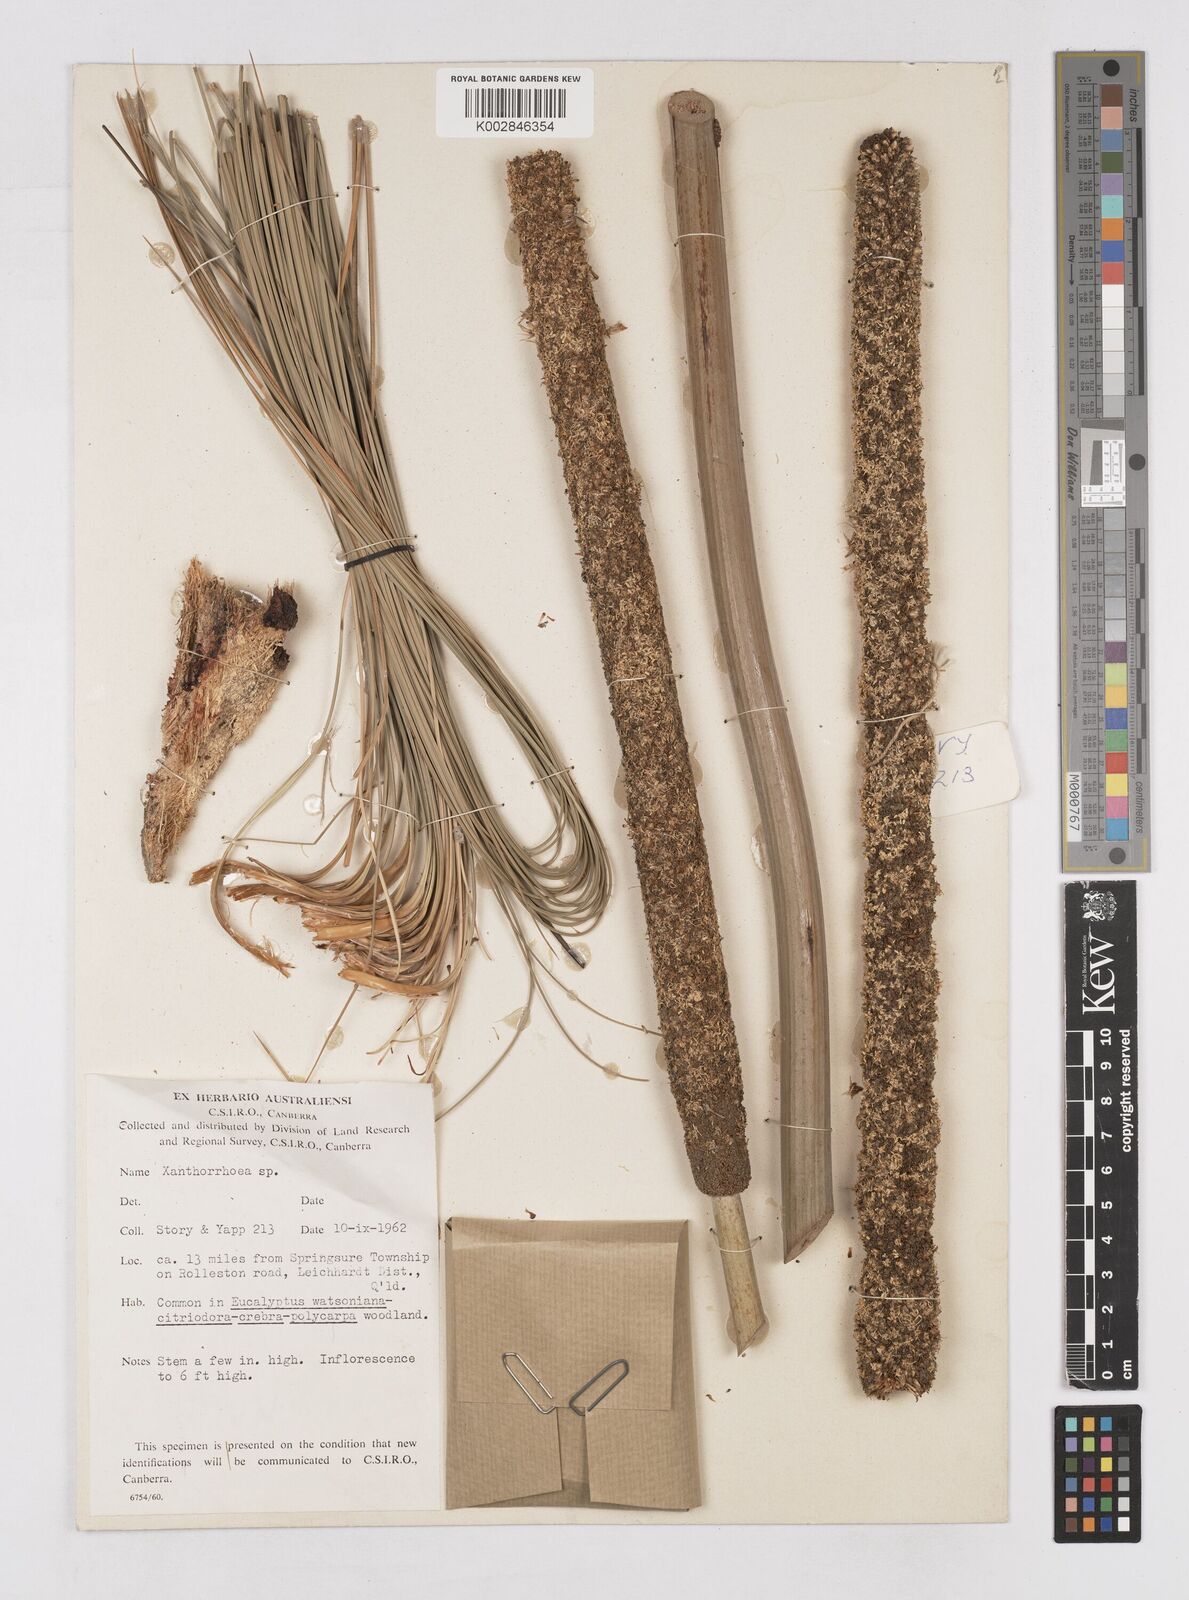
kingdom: Plantae
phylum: Tracheophyta
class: Liliopsida
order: Asparagales
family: Asphodelaceae
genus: Xanthorrhoea
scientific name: Xanthorrhoea
